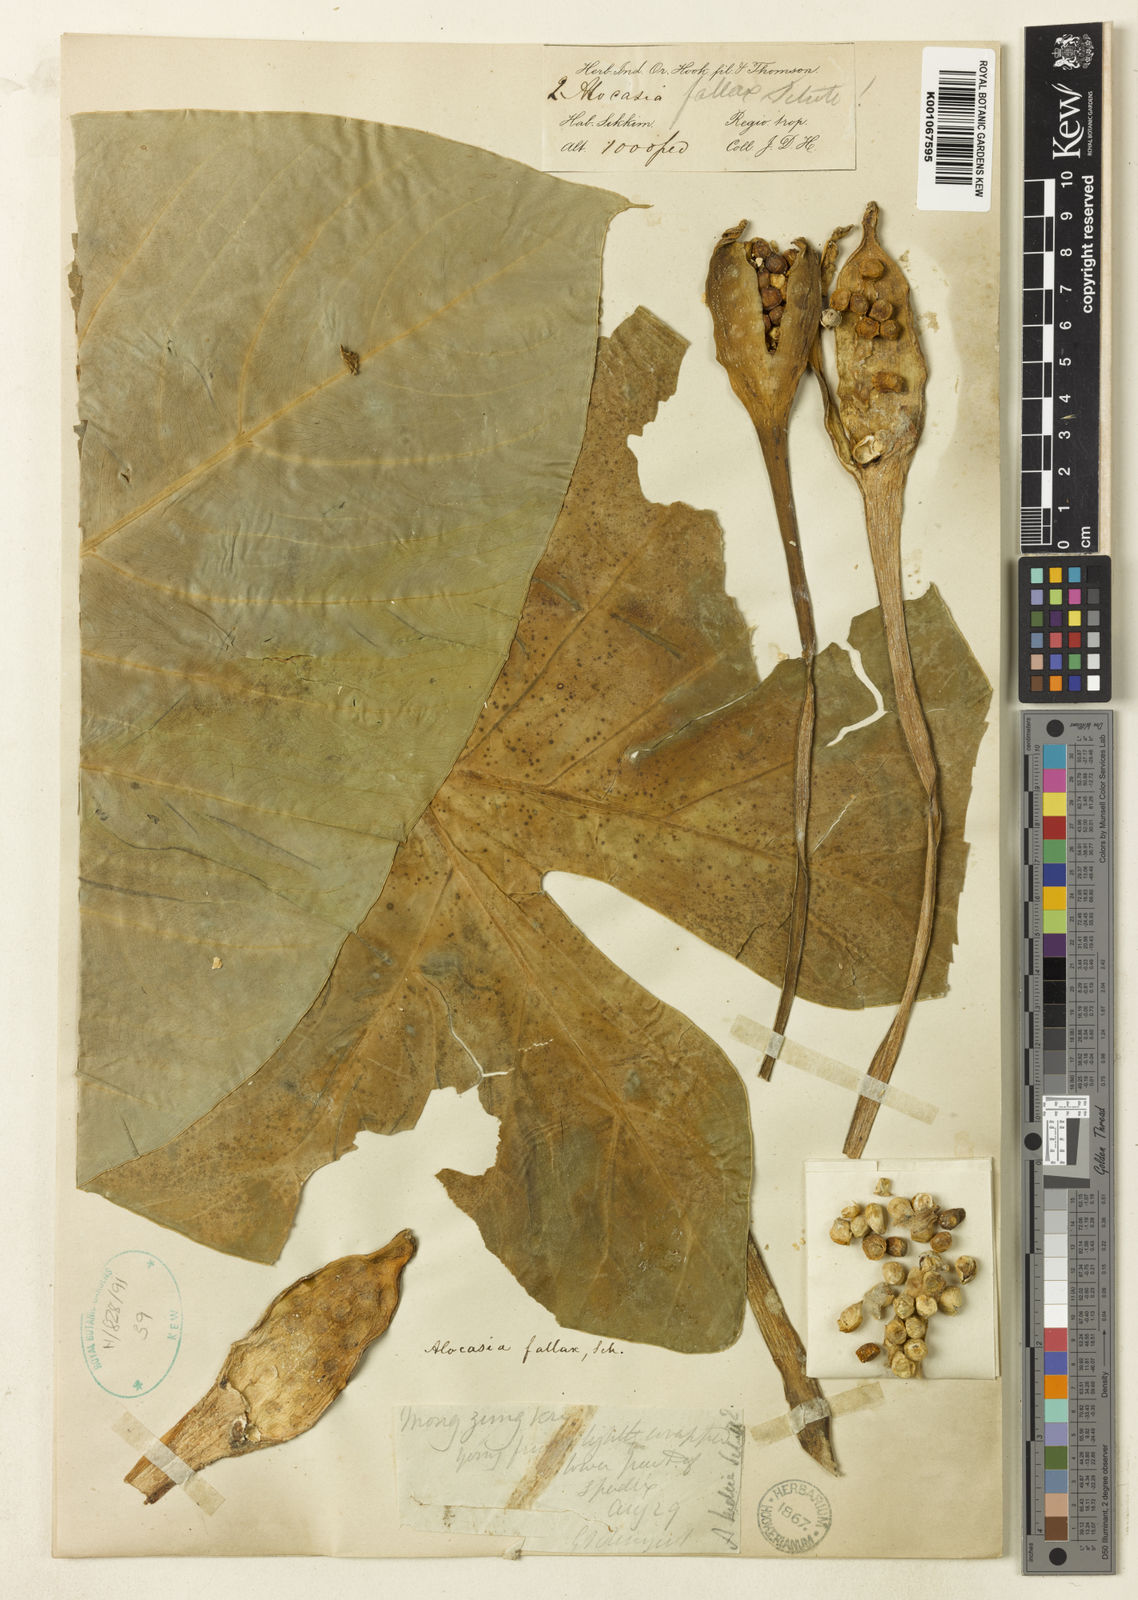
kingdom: Plantae
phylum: Tracheophyta
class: Liliopsida
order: Alismatales
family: Araceae
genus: Alocasia
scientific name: Alocasia fallax
